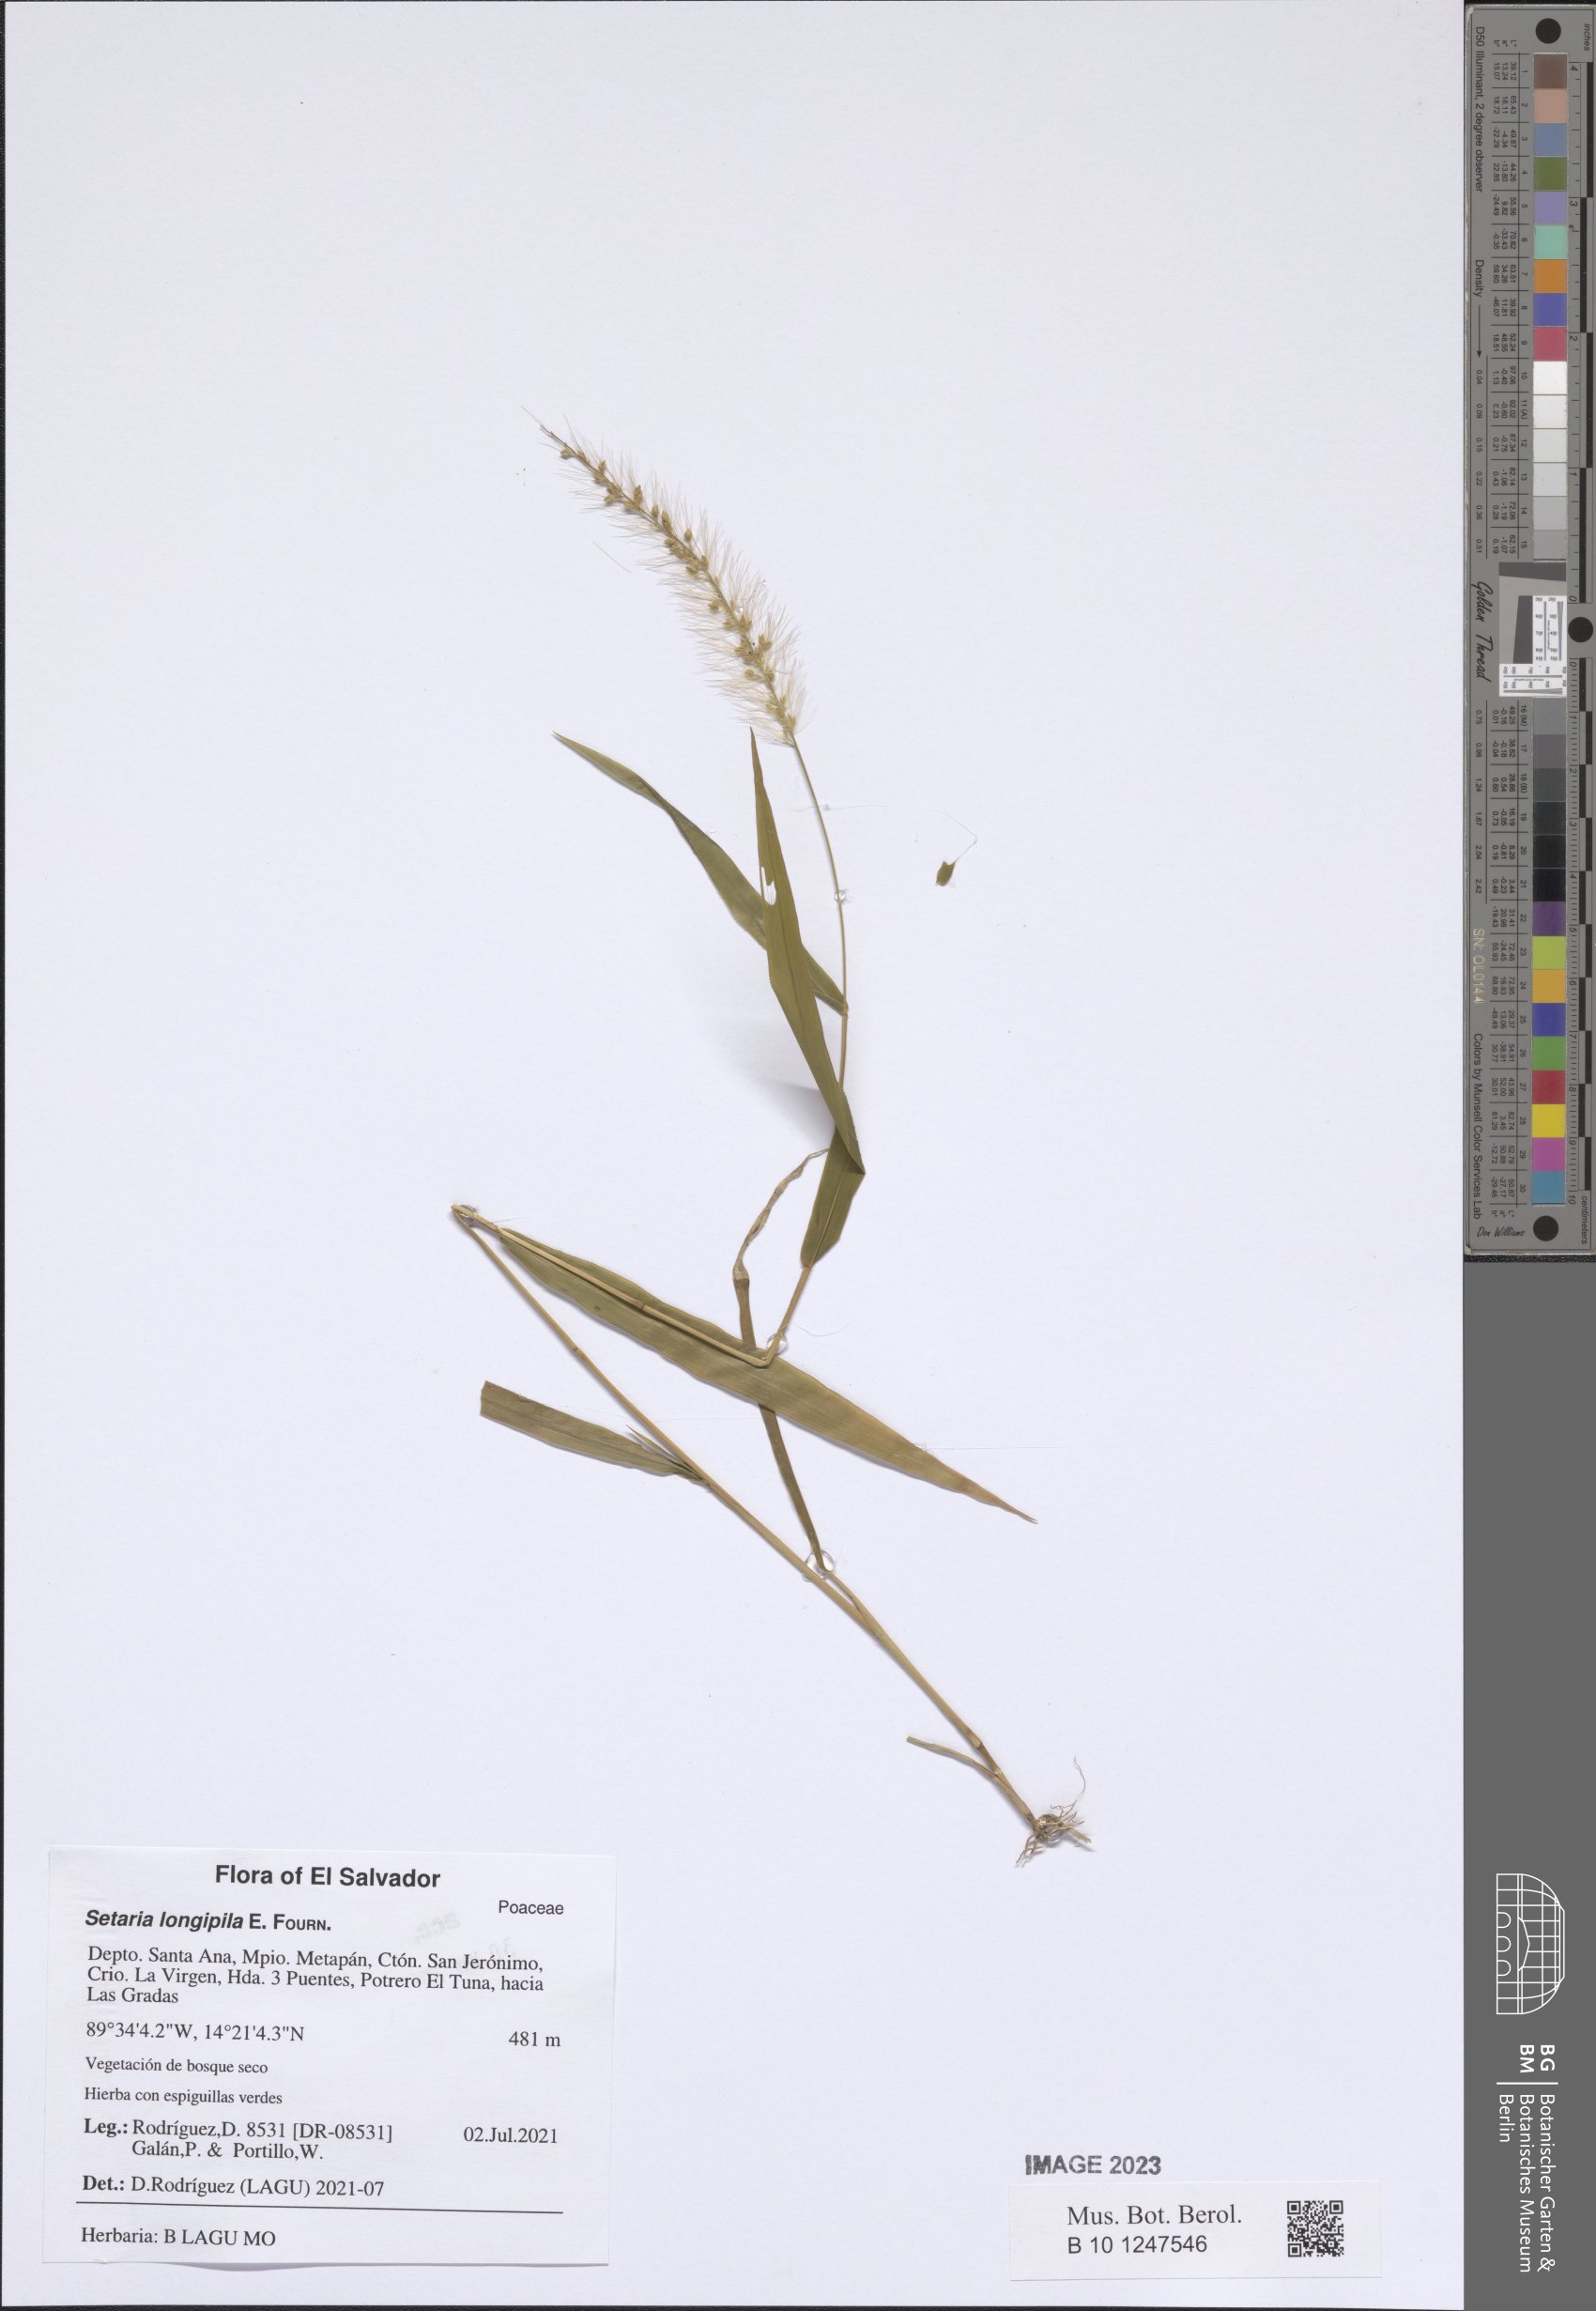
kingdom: Plantae
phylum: Tracheophyta
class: Liliopsida
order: Poales
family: Poaceae
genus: Setaria
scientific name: Setaria longipila
